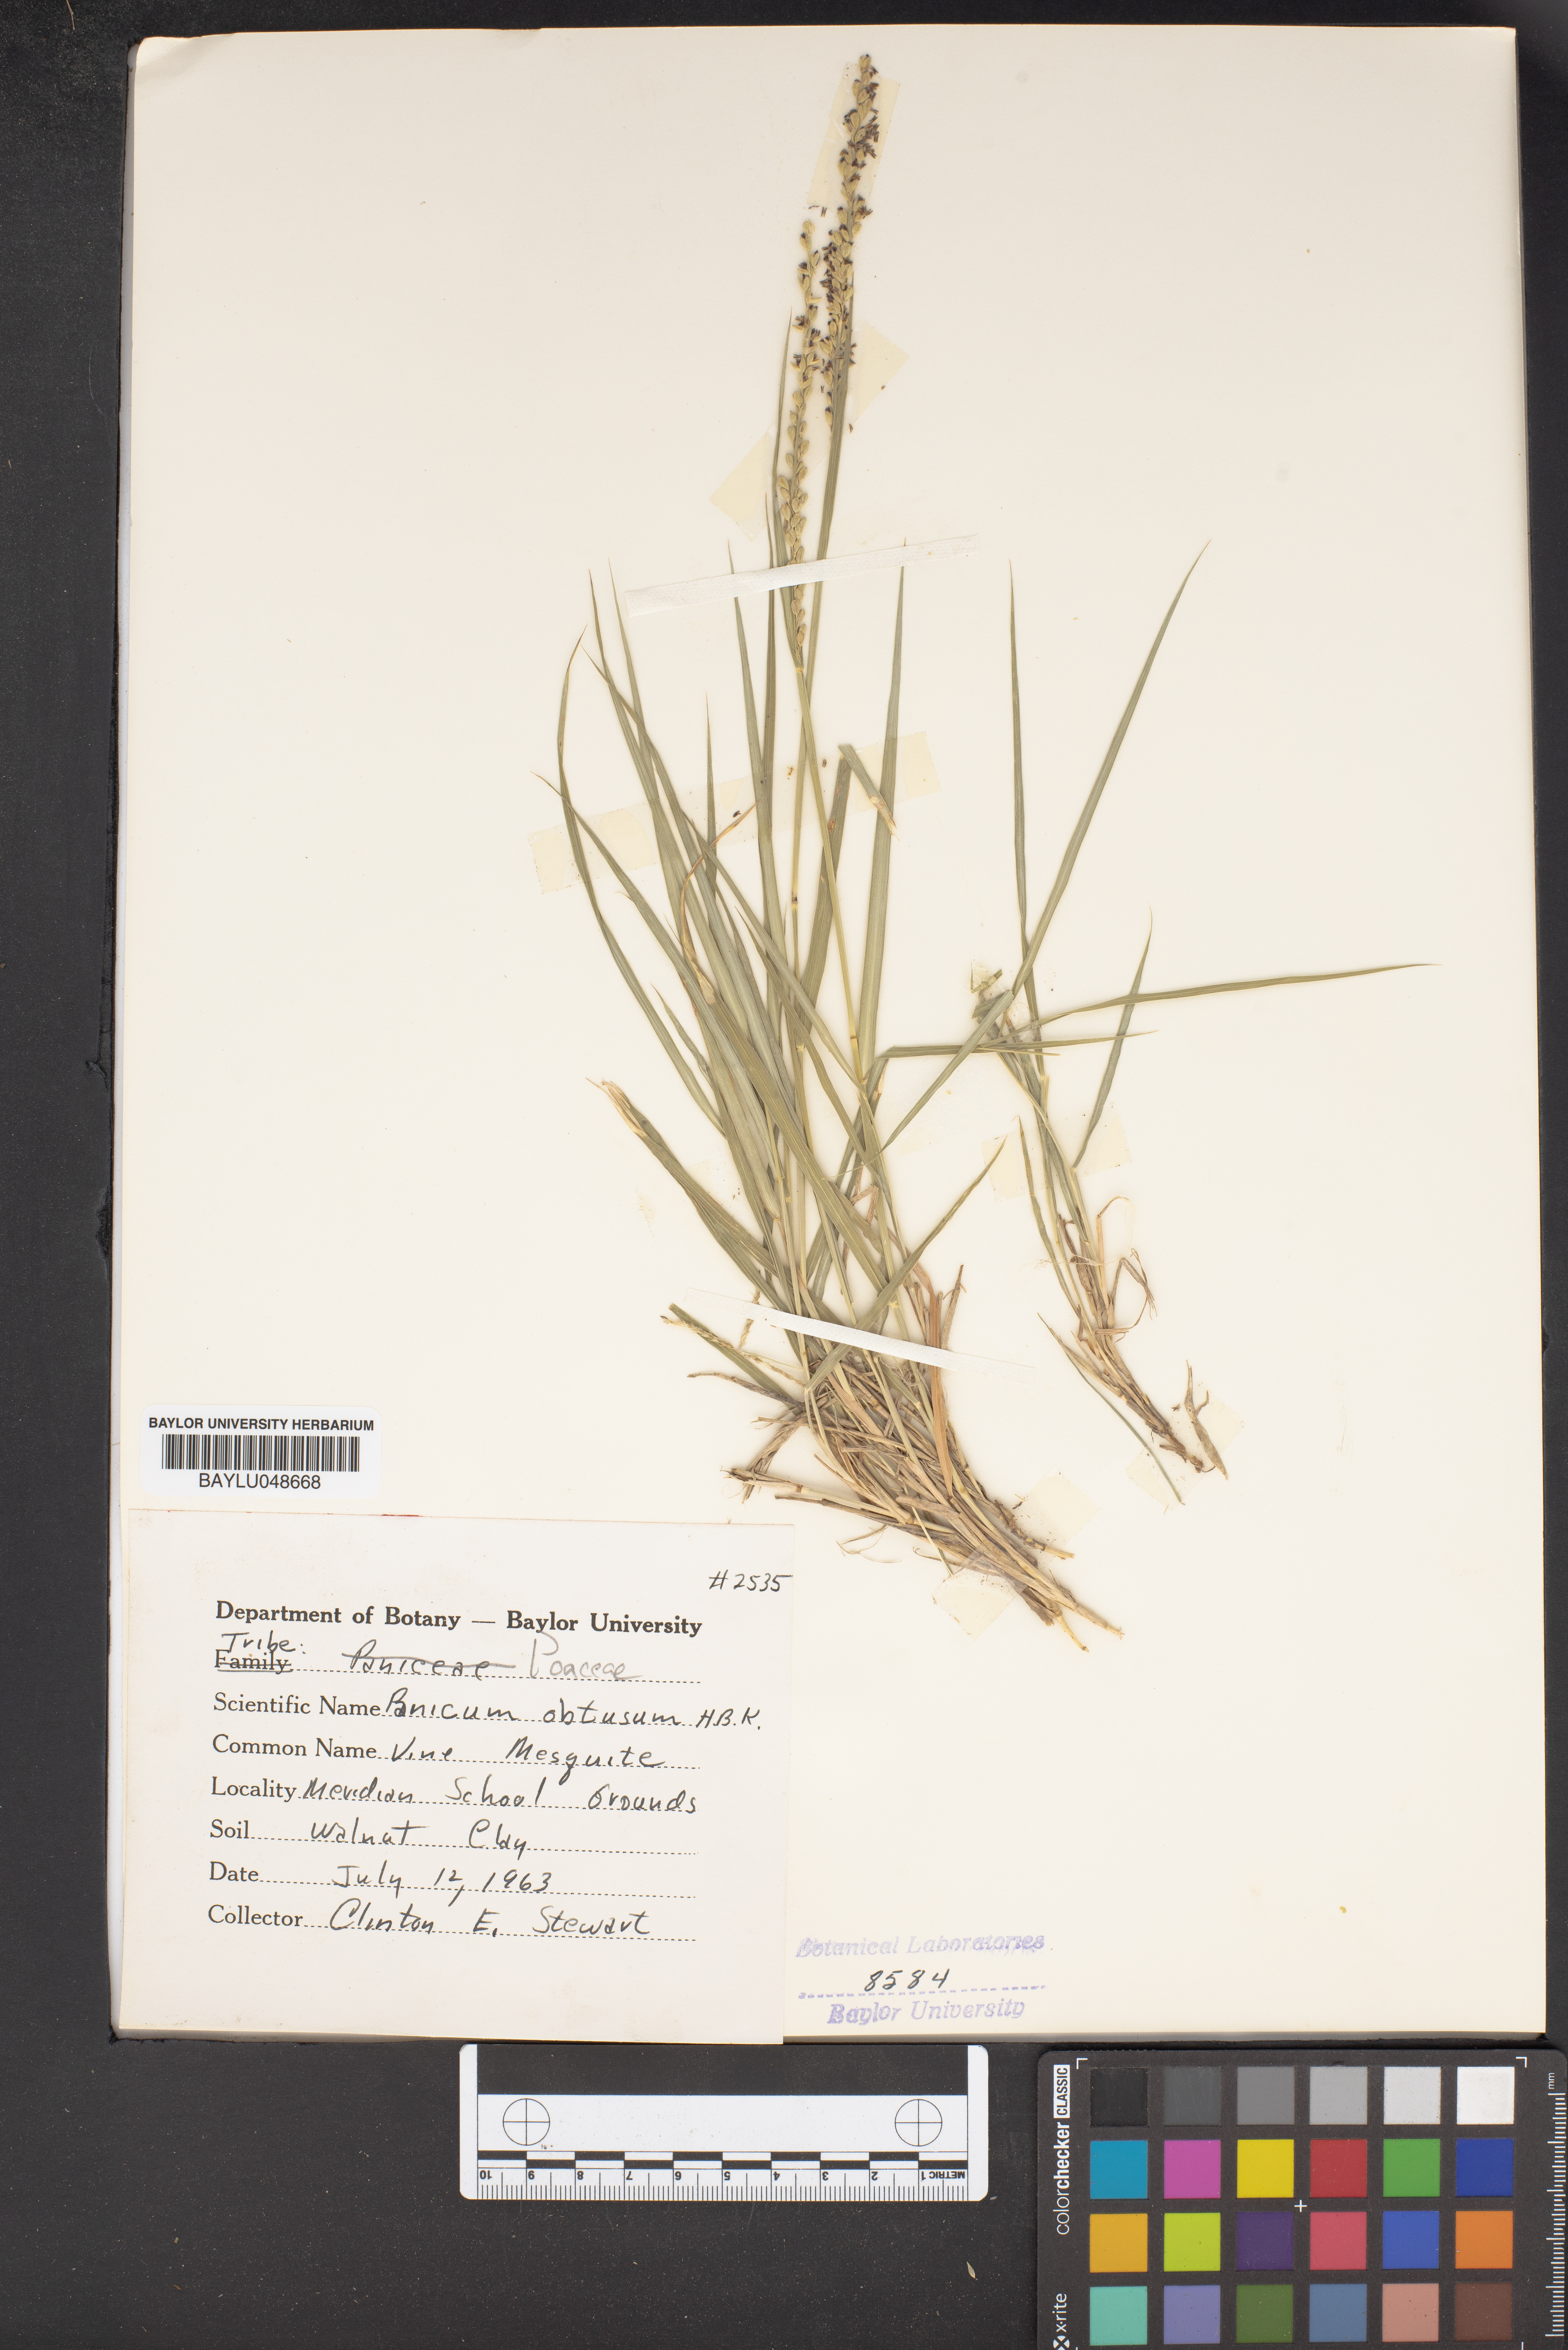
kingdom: Plantae
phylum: Tracheophyta
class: Liliopsida
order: Poales
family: Poaceae
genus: Hopia
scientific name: Hopia obtusa
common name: Vine-mesquite
